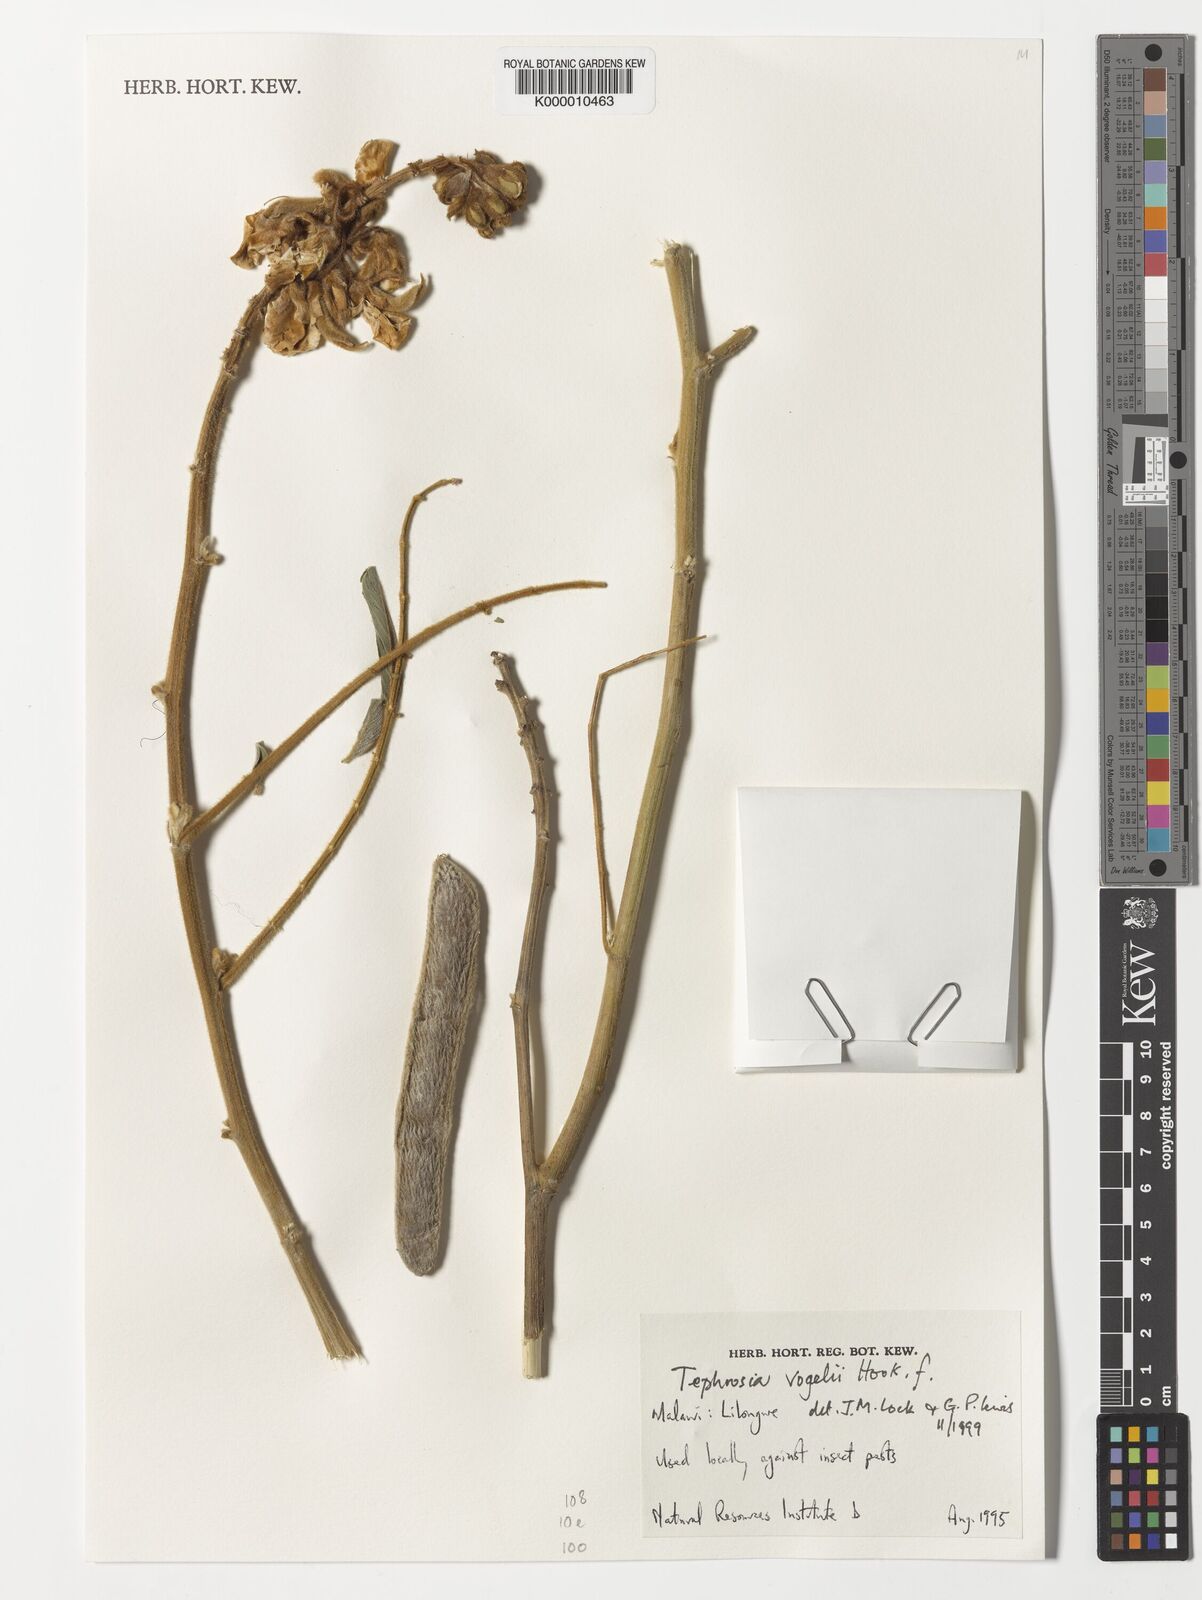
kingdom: Plantae
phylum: Tracheophyta
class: Magnoliopsida
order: Fabales
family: Fabaceae
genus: Tephrosia
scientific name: Tephrosia vogelii
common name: Vogel tephrosia
